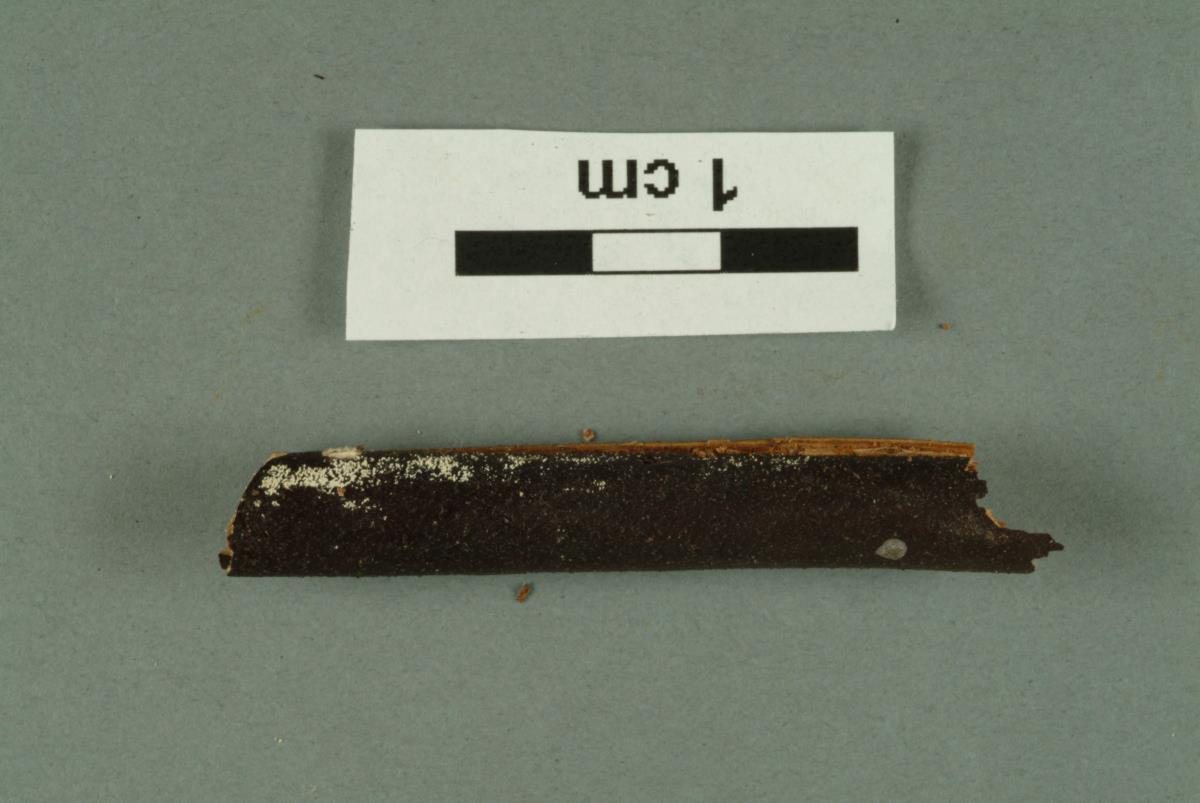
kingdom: Fungi
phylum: Basidiomycota
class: Agaricomycetes
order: Russulales
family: Stereaceae
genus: Stereodiscus
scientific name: Stereodiscus parmuliformis
